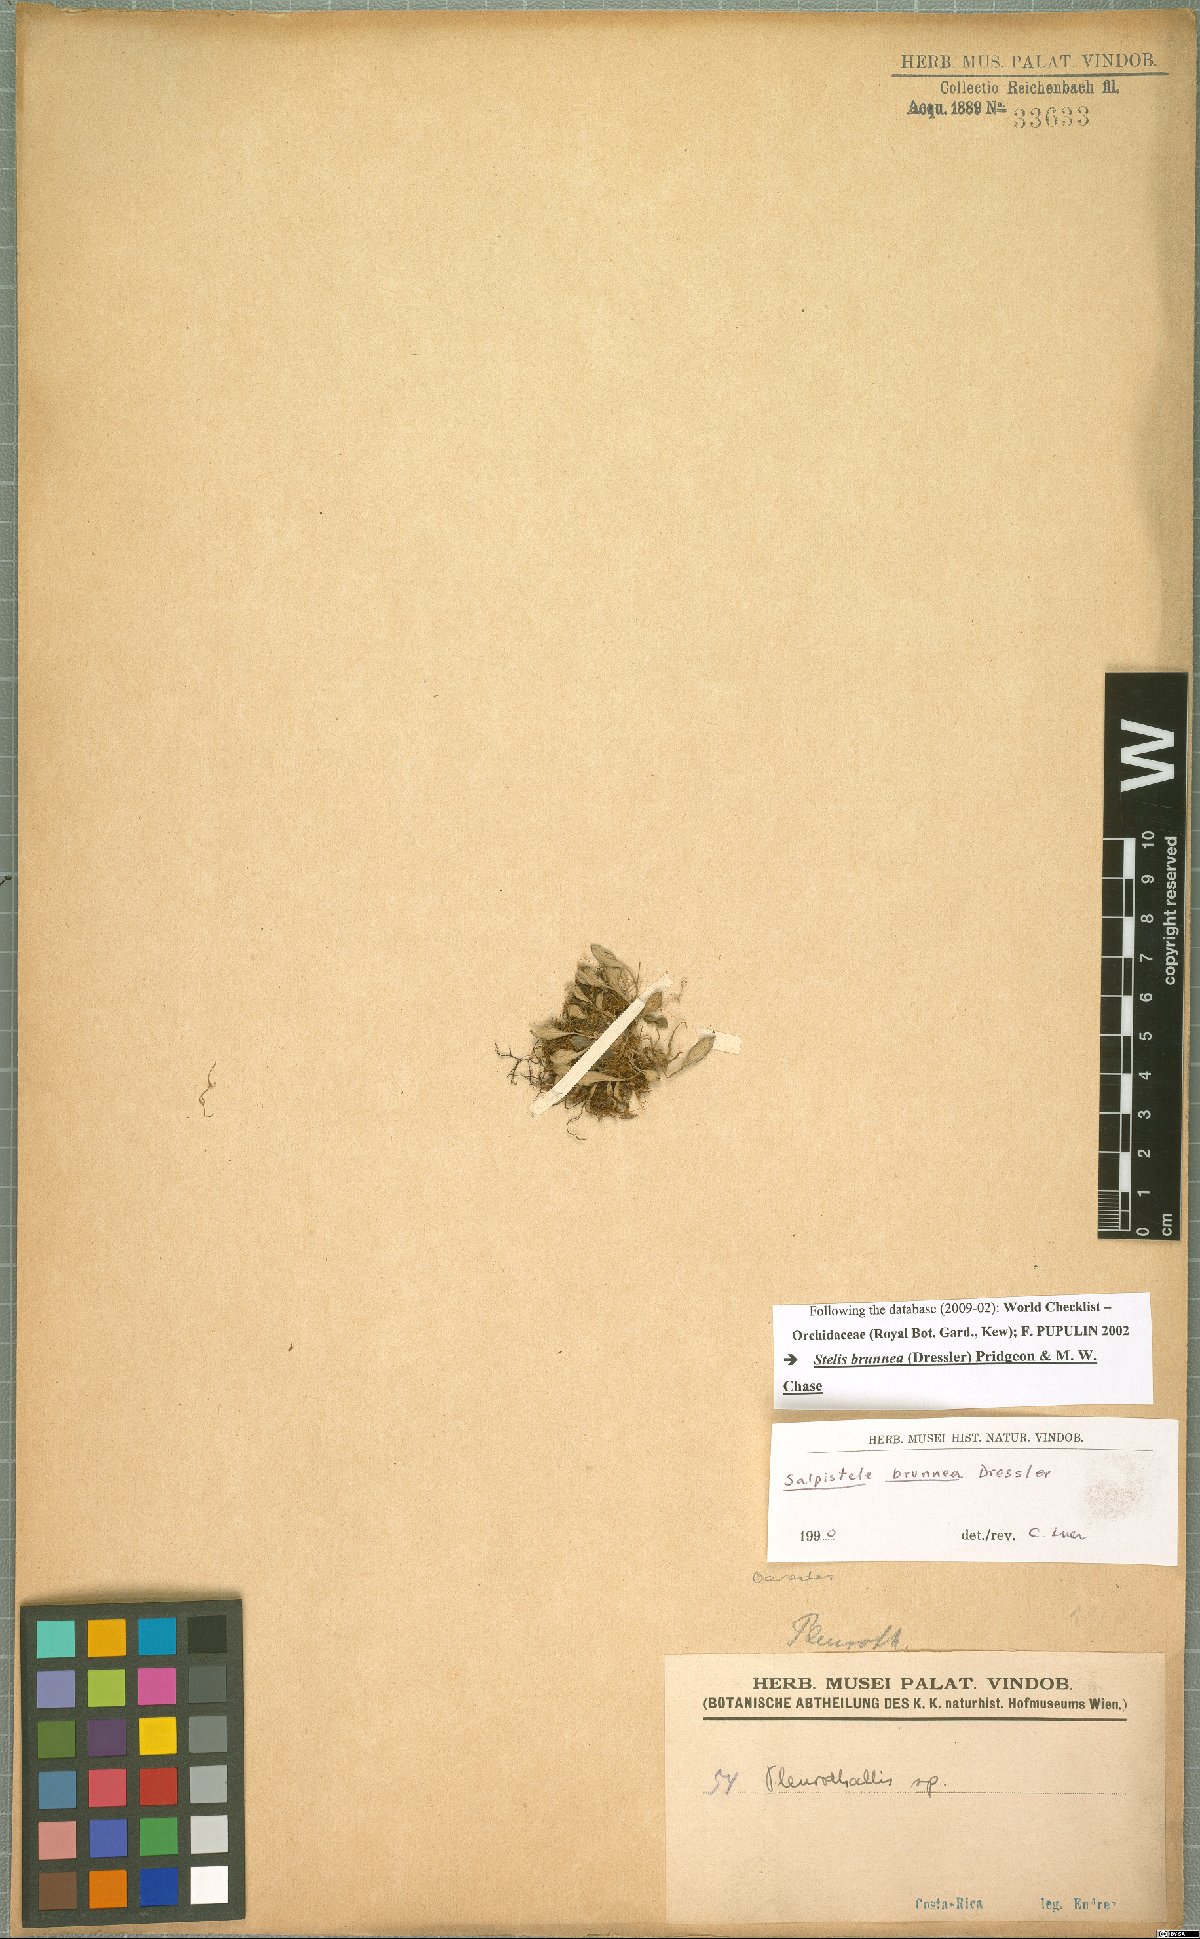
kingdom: Plantae
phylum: Tracheophyta
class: Liliopsida
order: Asparagales
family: Orchidaceae
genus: Stelis
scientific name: Stelis brunnea
